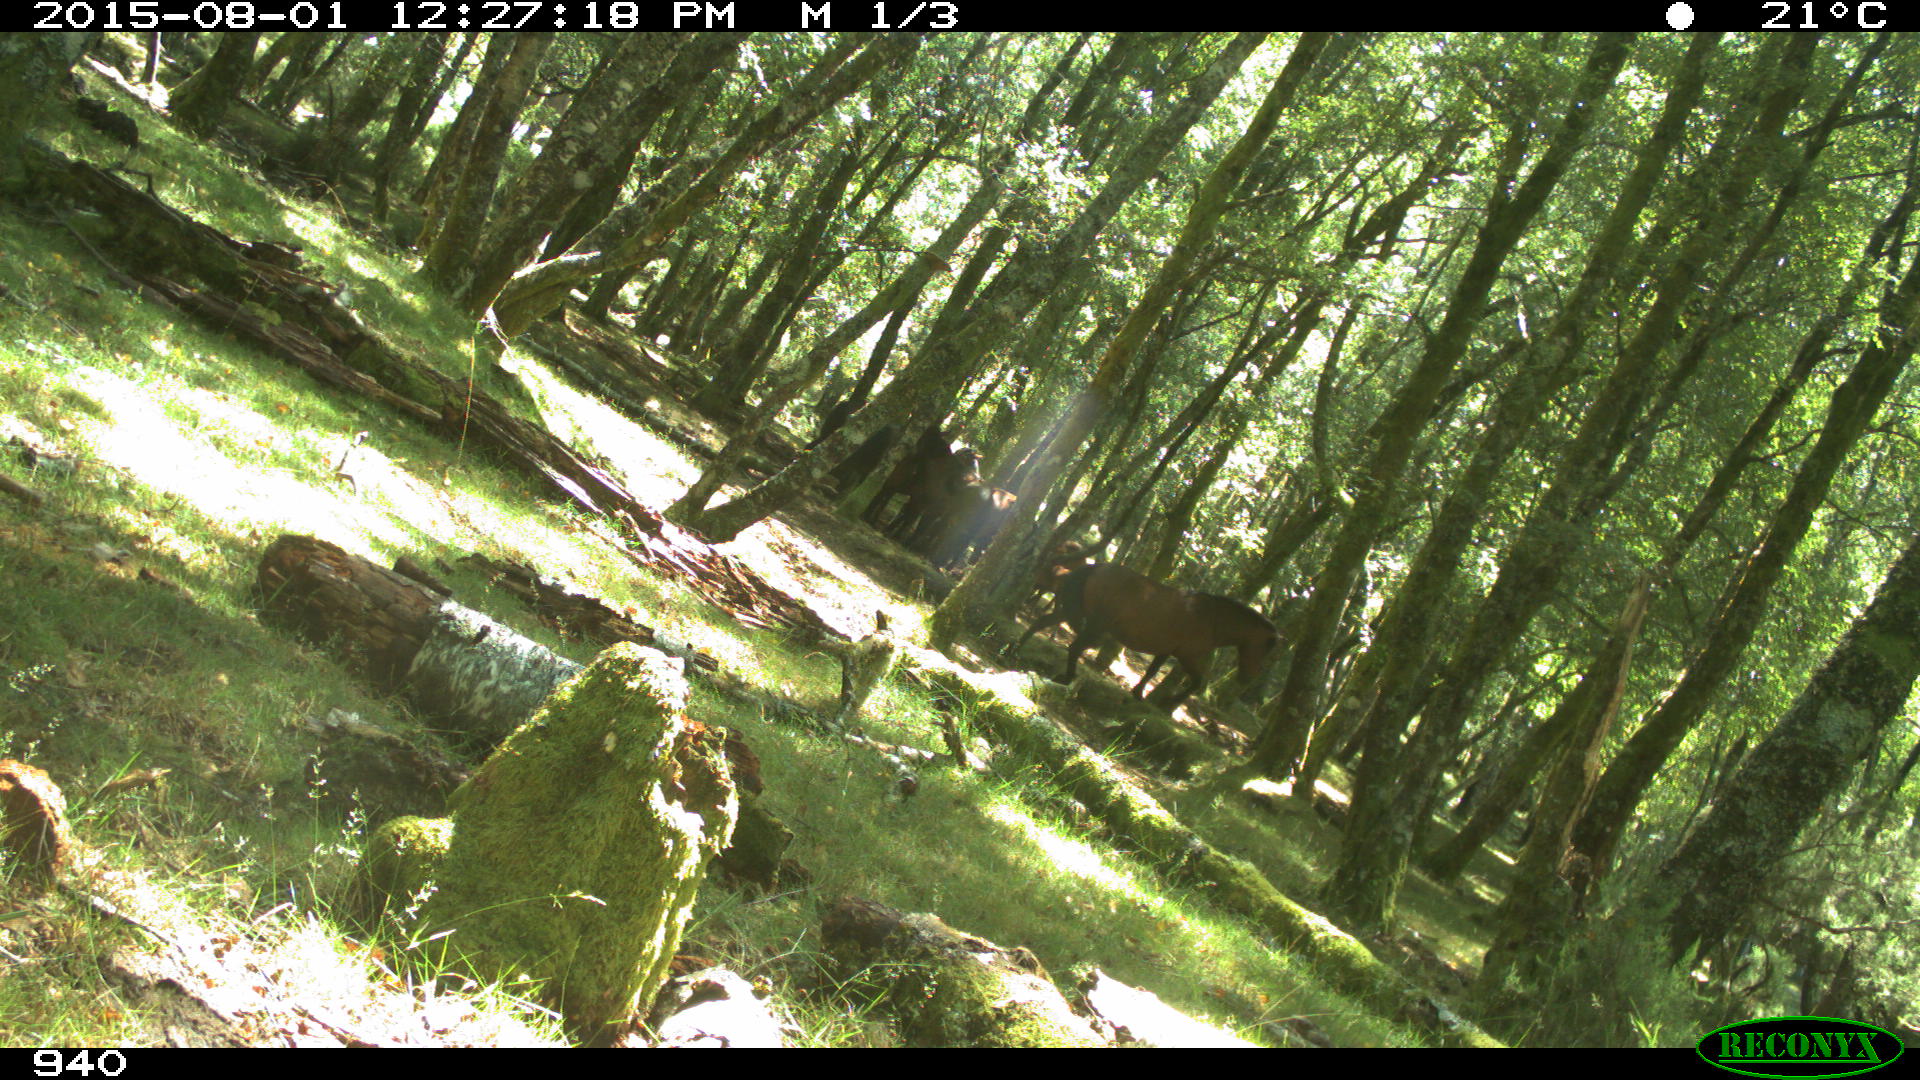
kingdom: Animalia
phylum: Chordata
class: Mammalia
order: Perissodactyla
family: Equidae
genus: Equus
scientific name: Equus caballus
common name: Horse
